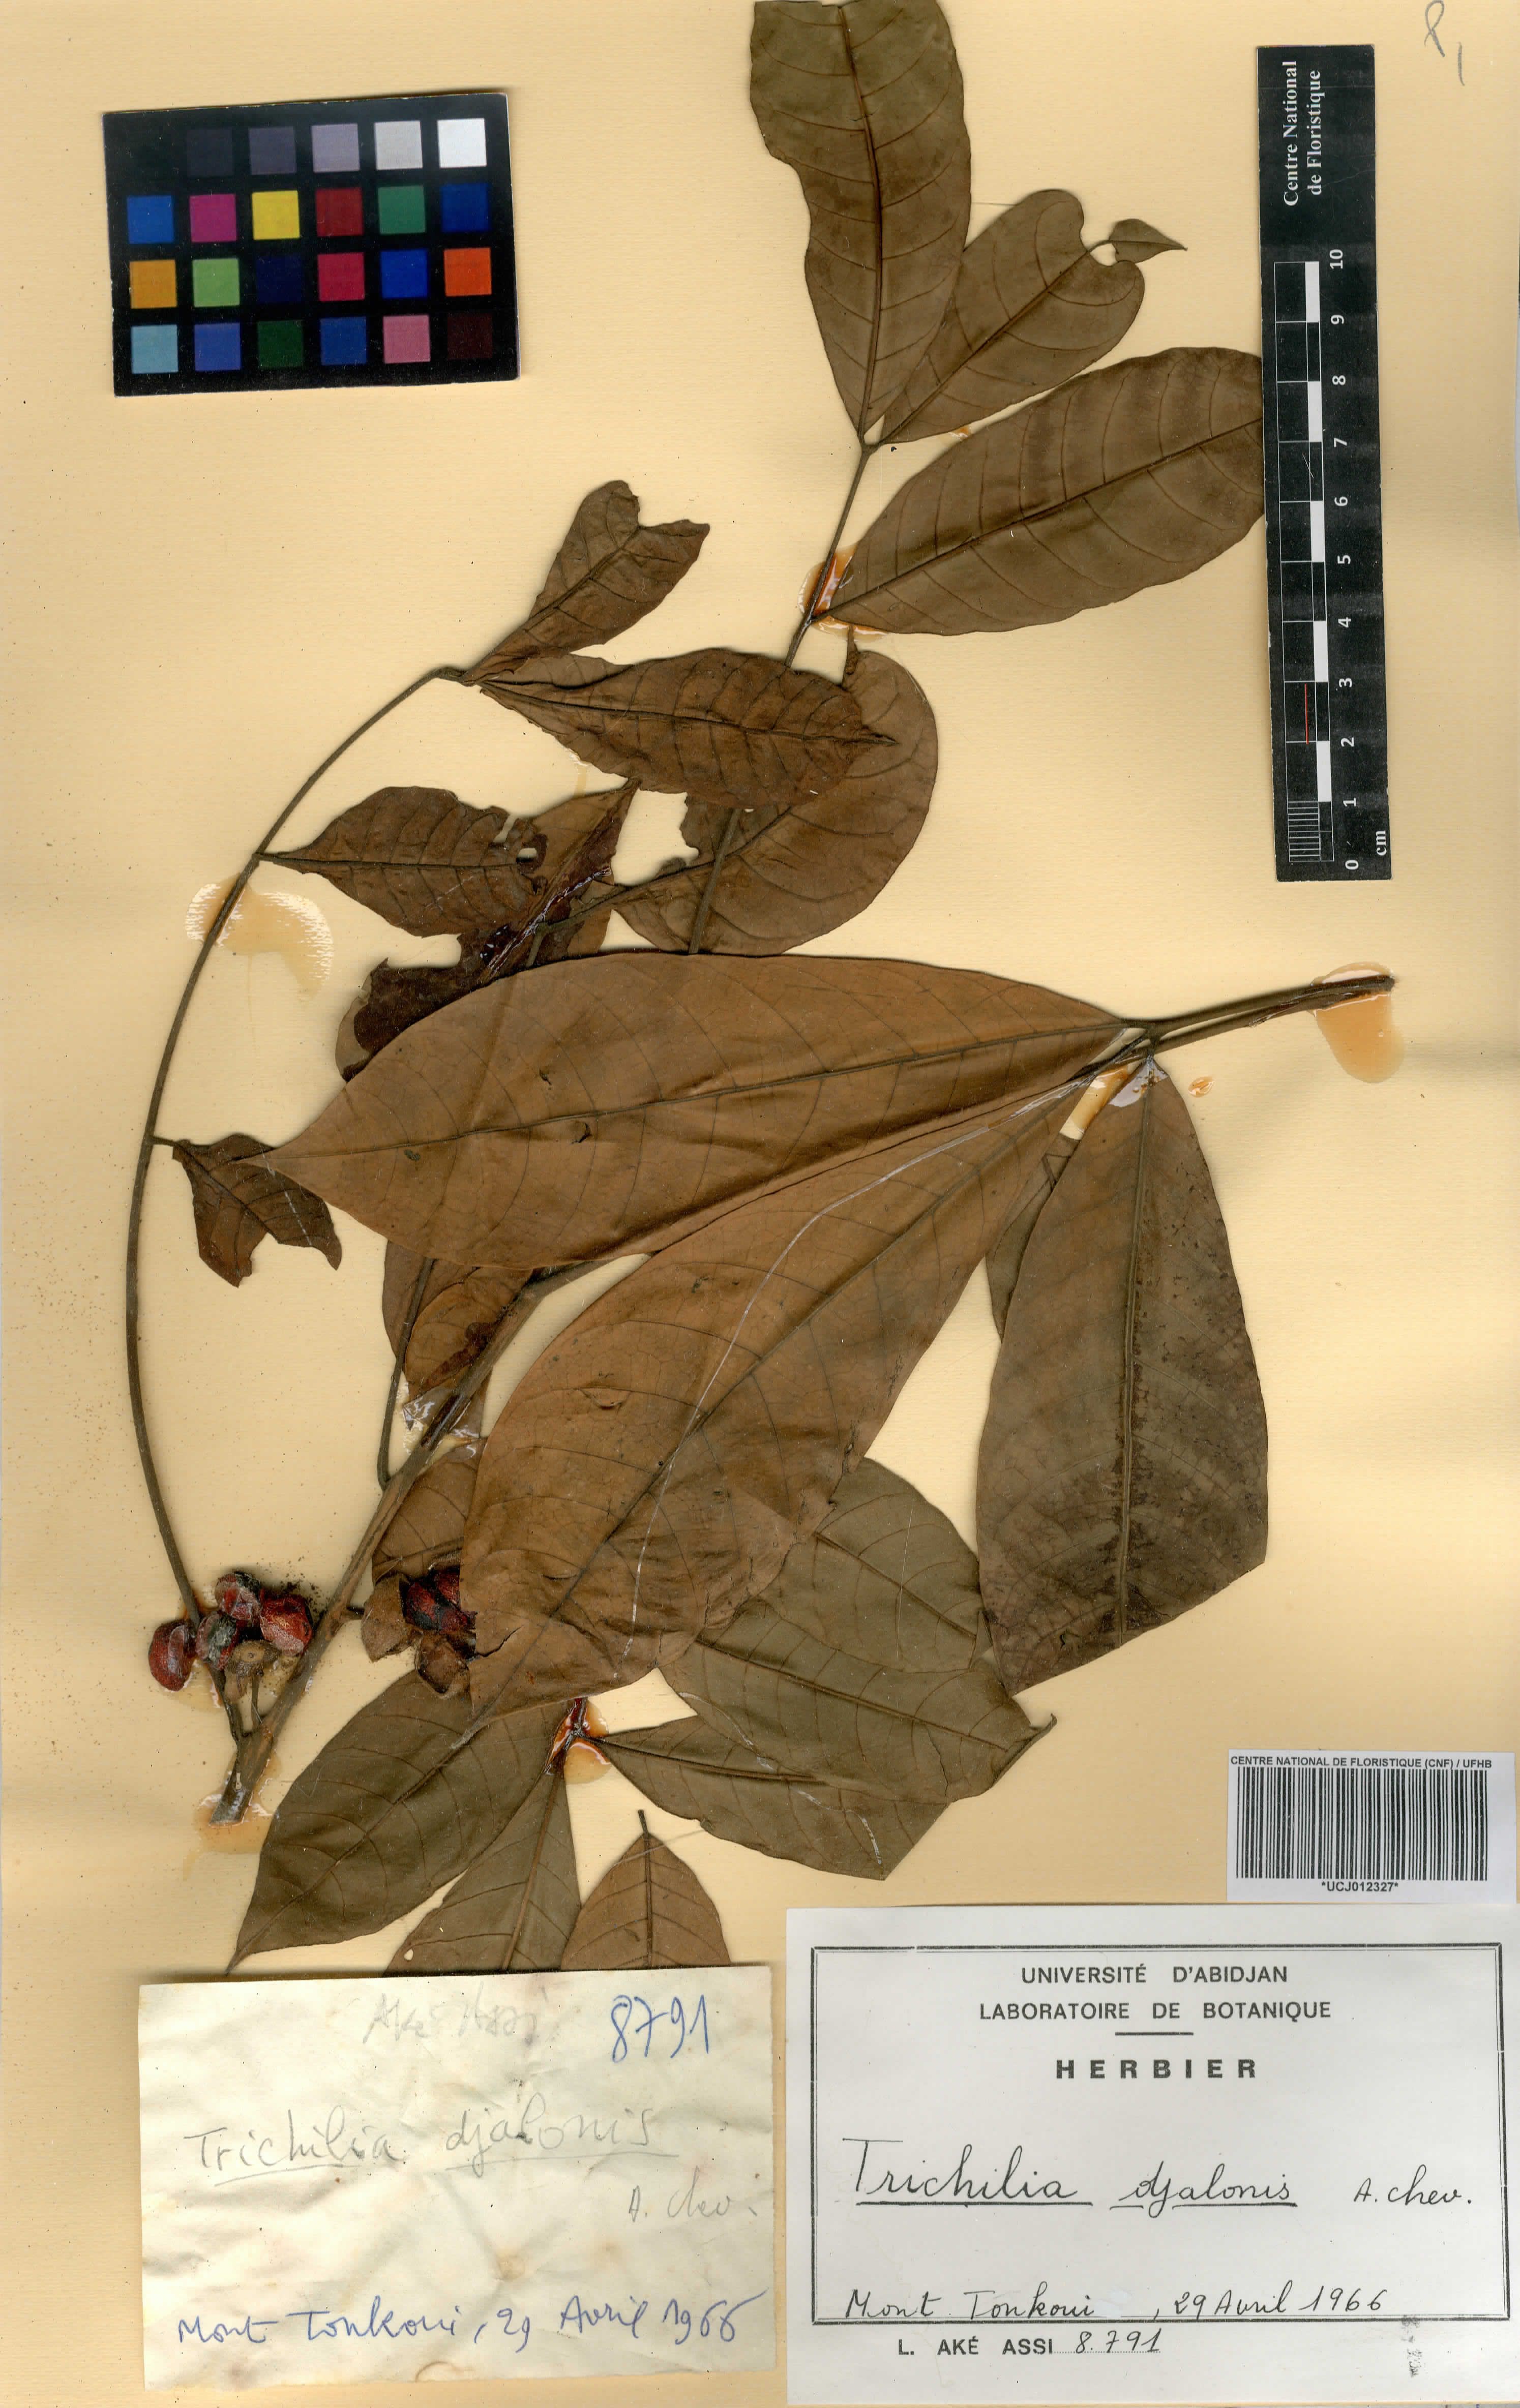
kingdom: Plantae
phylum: Tracheophyta
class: Magnoliopsida
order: Sapindales
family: Meliaceae
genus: Trichilia
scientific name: Trichilia djalonis
